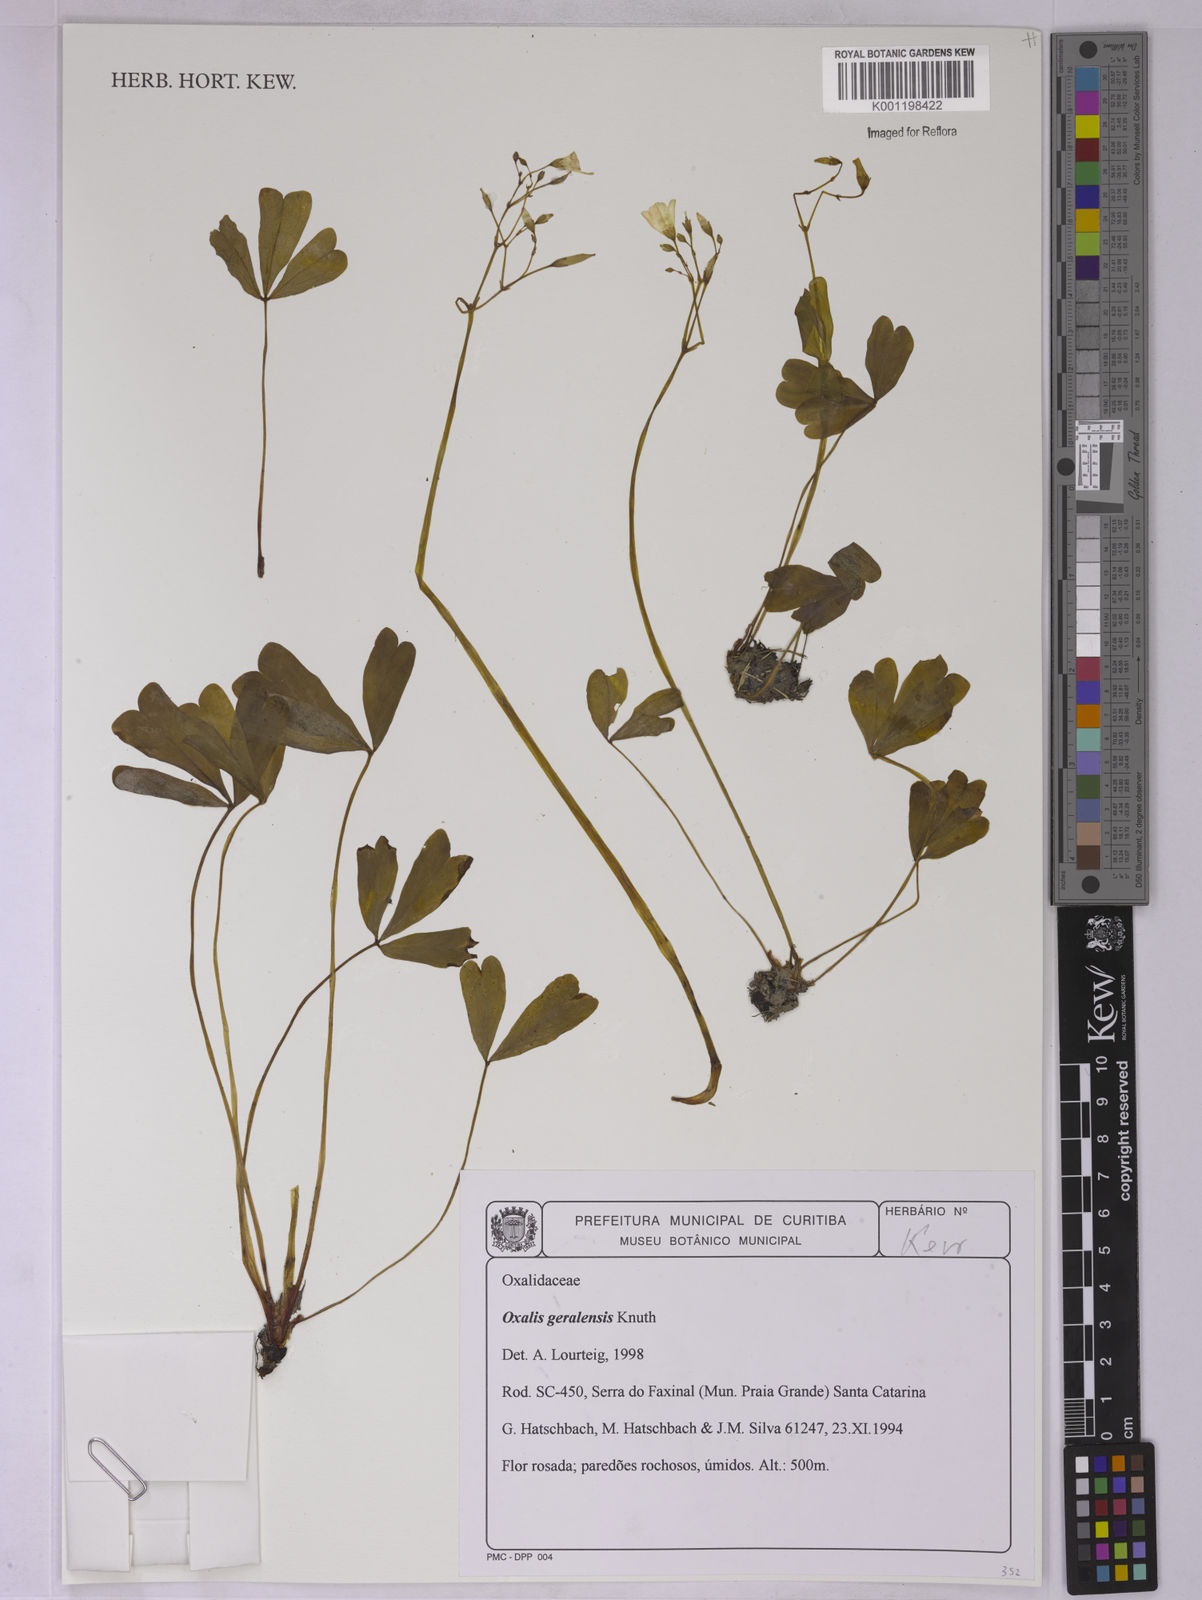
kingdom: Plantae
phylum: Tracheophyta
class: Magnoliopsida
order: Oxalidales
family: Oxalidaceae
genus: Oxalis
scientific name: Oxalis geralensis
